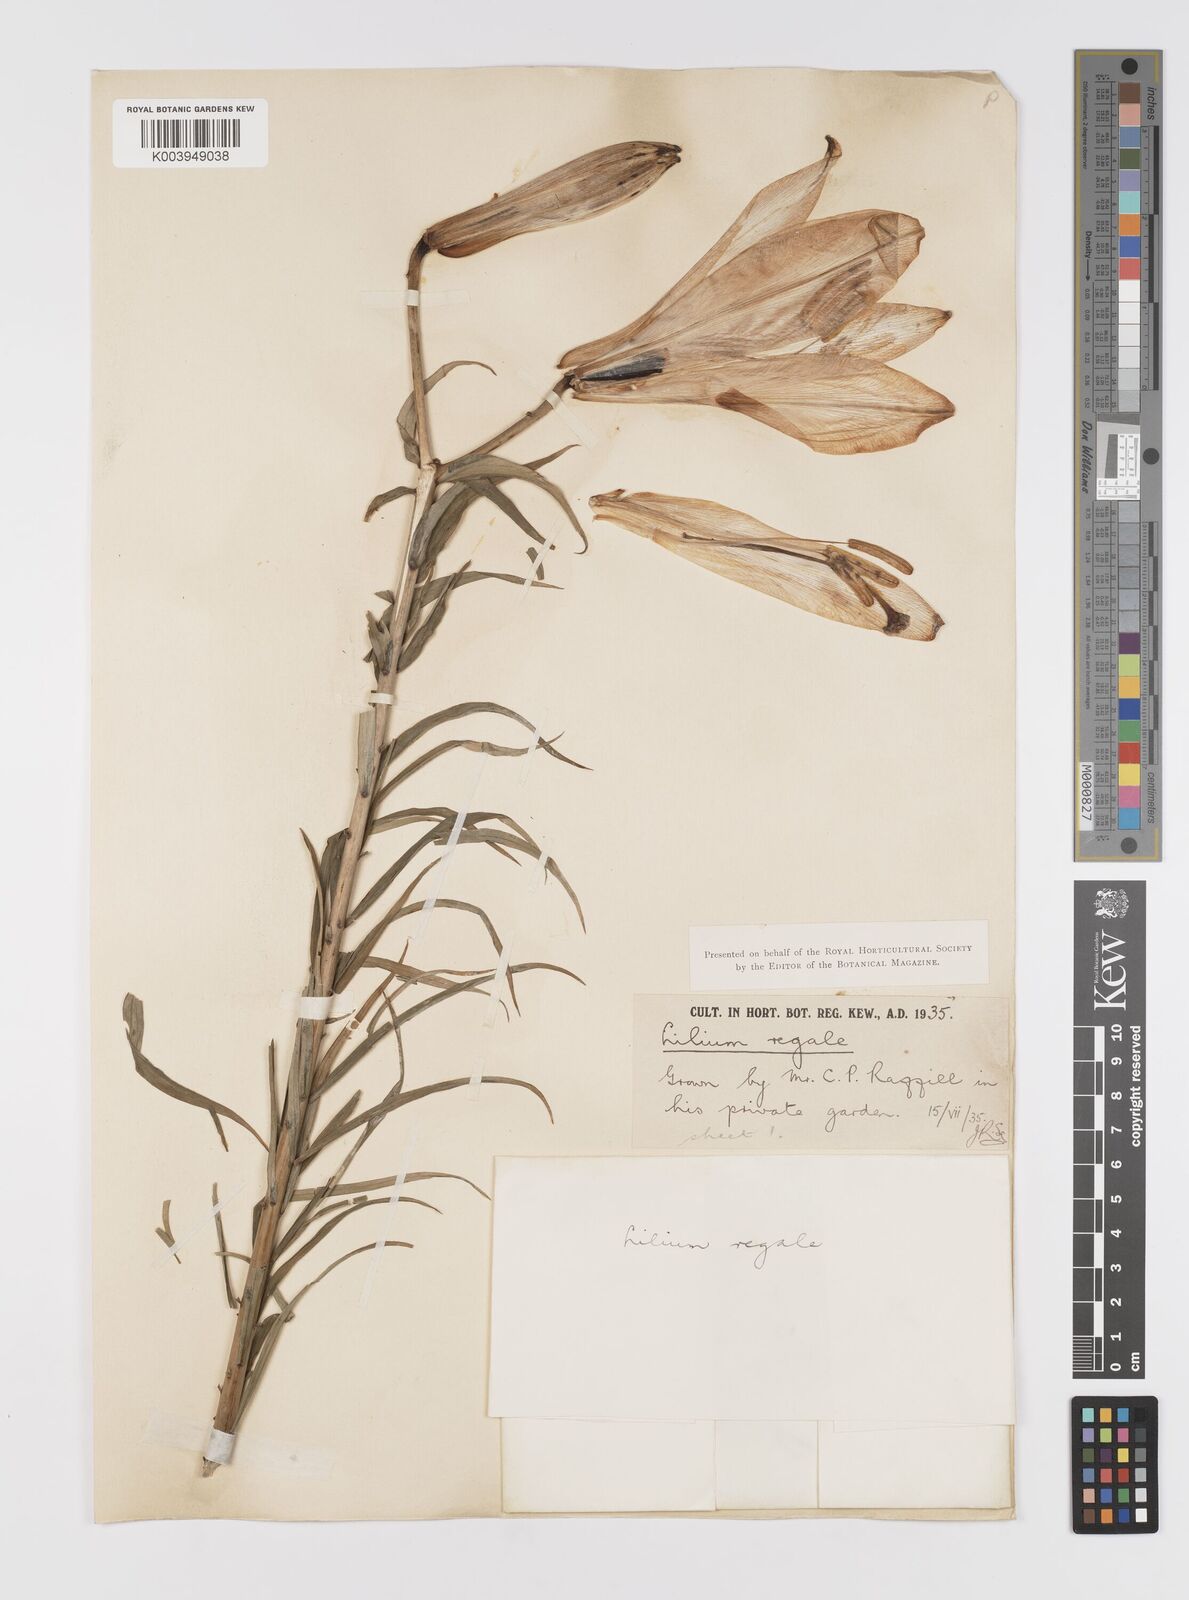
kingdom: Plantae
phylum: Tracheophyta
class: Liliopsida
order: Liliales
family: Liliaceae
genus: Lilium
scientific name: Lilium regale
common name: Regal lily
